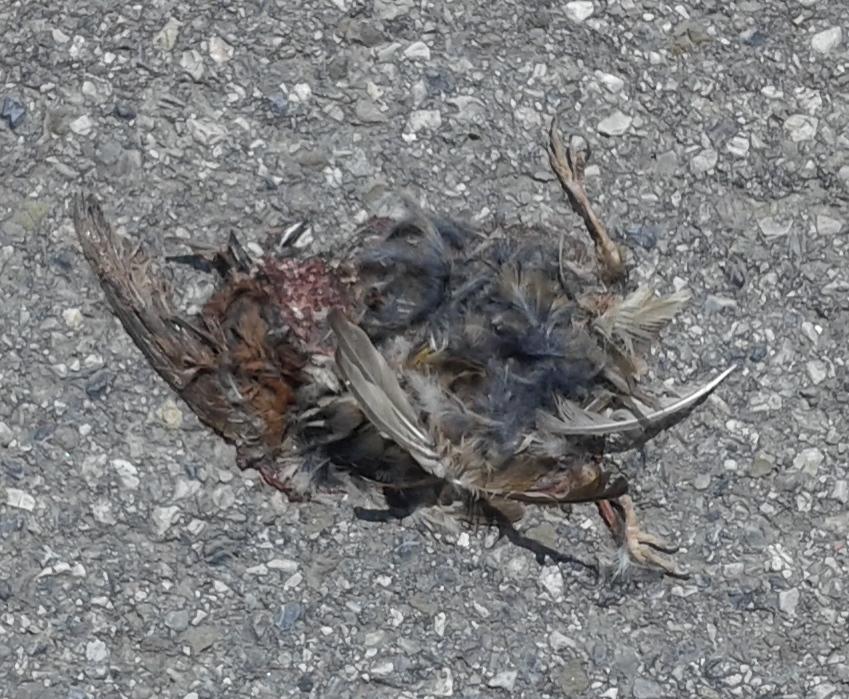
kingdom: Animalia
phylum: Chordata
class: Aves
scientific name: Aves
